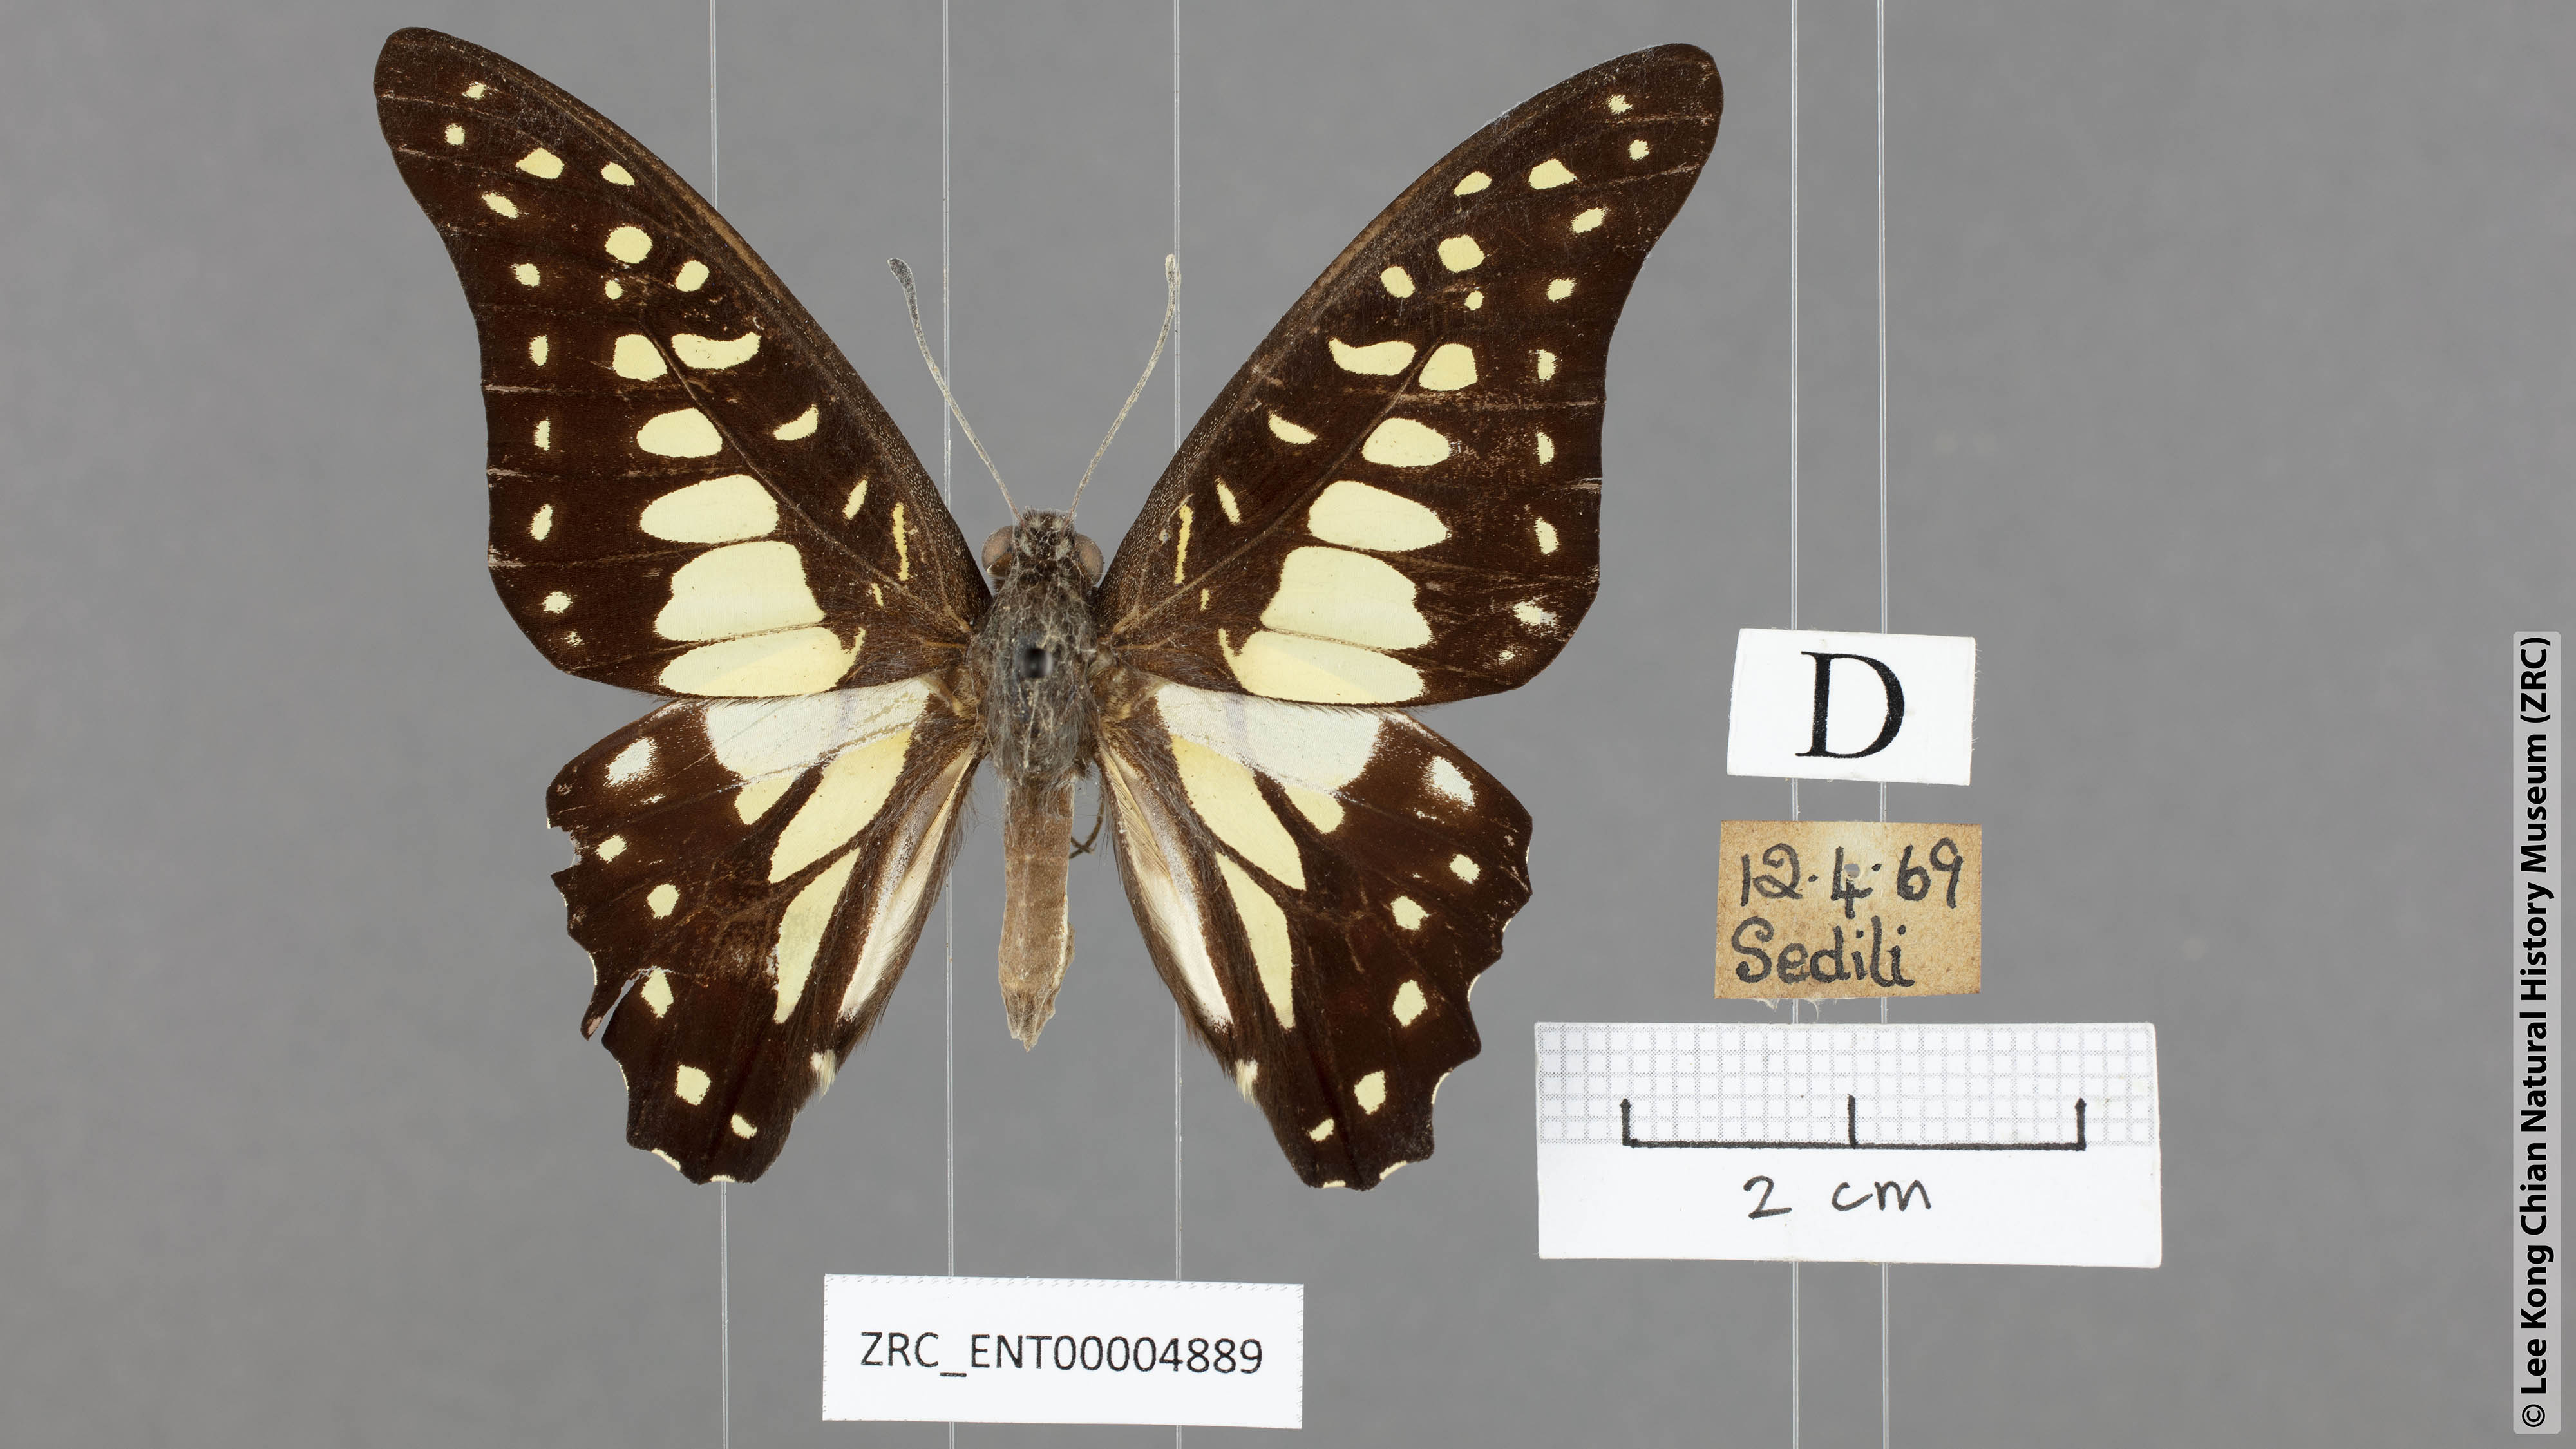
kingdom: Animalia
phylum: Arthropoda
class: Insecta
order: Lepidoptera
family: Papilionidae
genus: Graphium
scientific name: Graphium bathycles
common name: Veined jay
